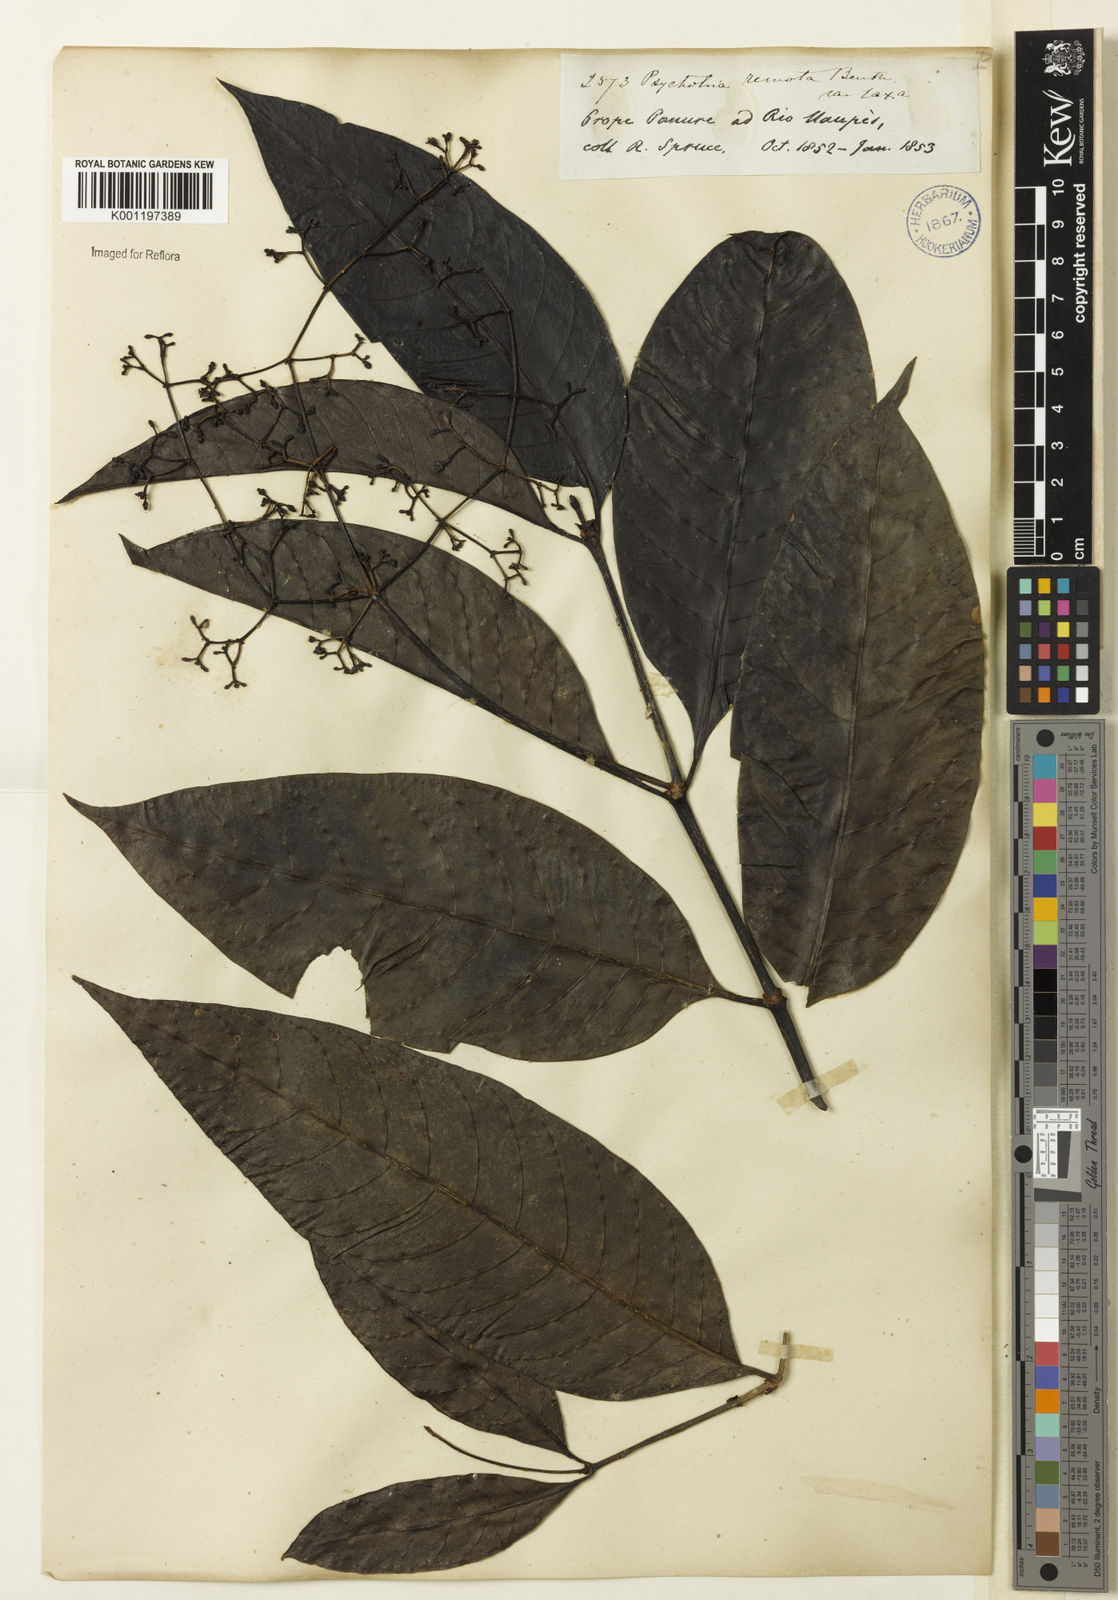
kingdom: Plantae
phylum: Tracheophyta
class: Magnoliopsida
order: Gentianales
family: Rubiaceae
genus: Psychotria
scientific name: Psychotria remota
